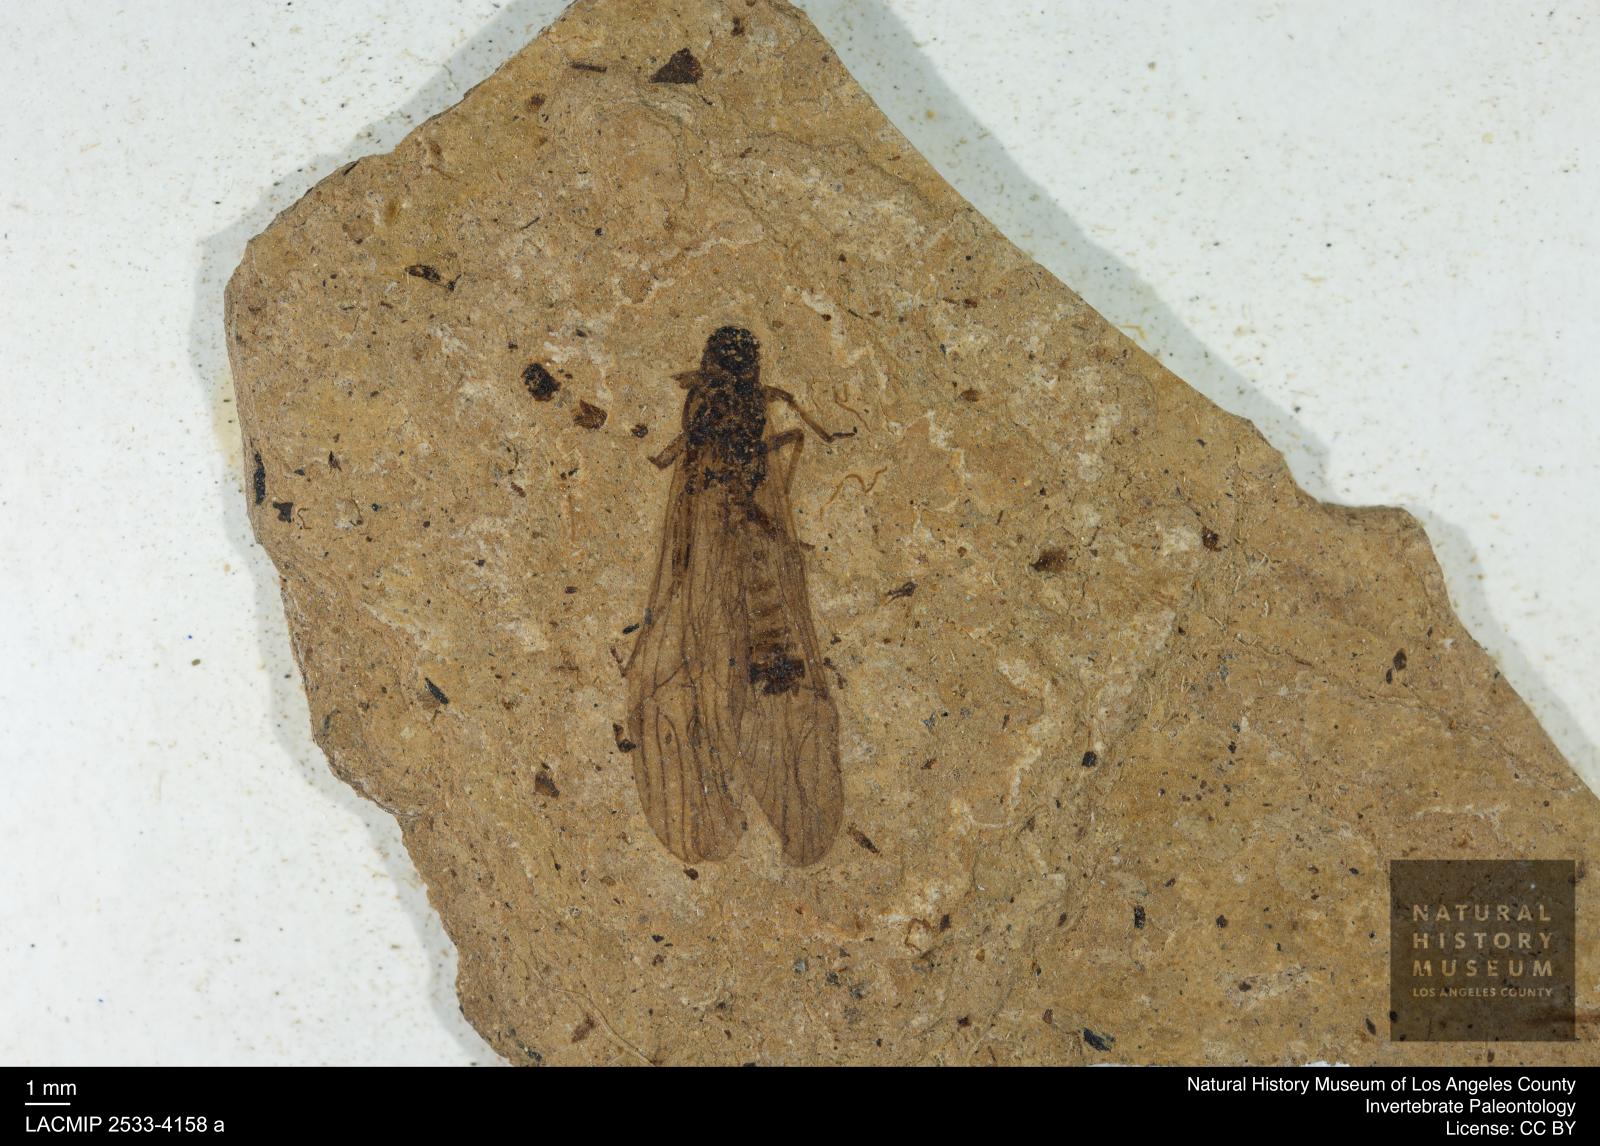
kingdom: Animalia
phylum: Arthropoda
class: Insecta
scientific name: Insecta
